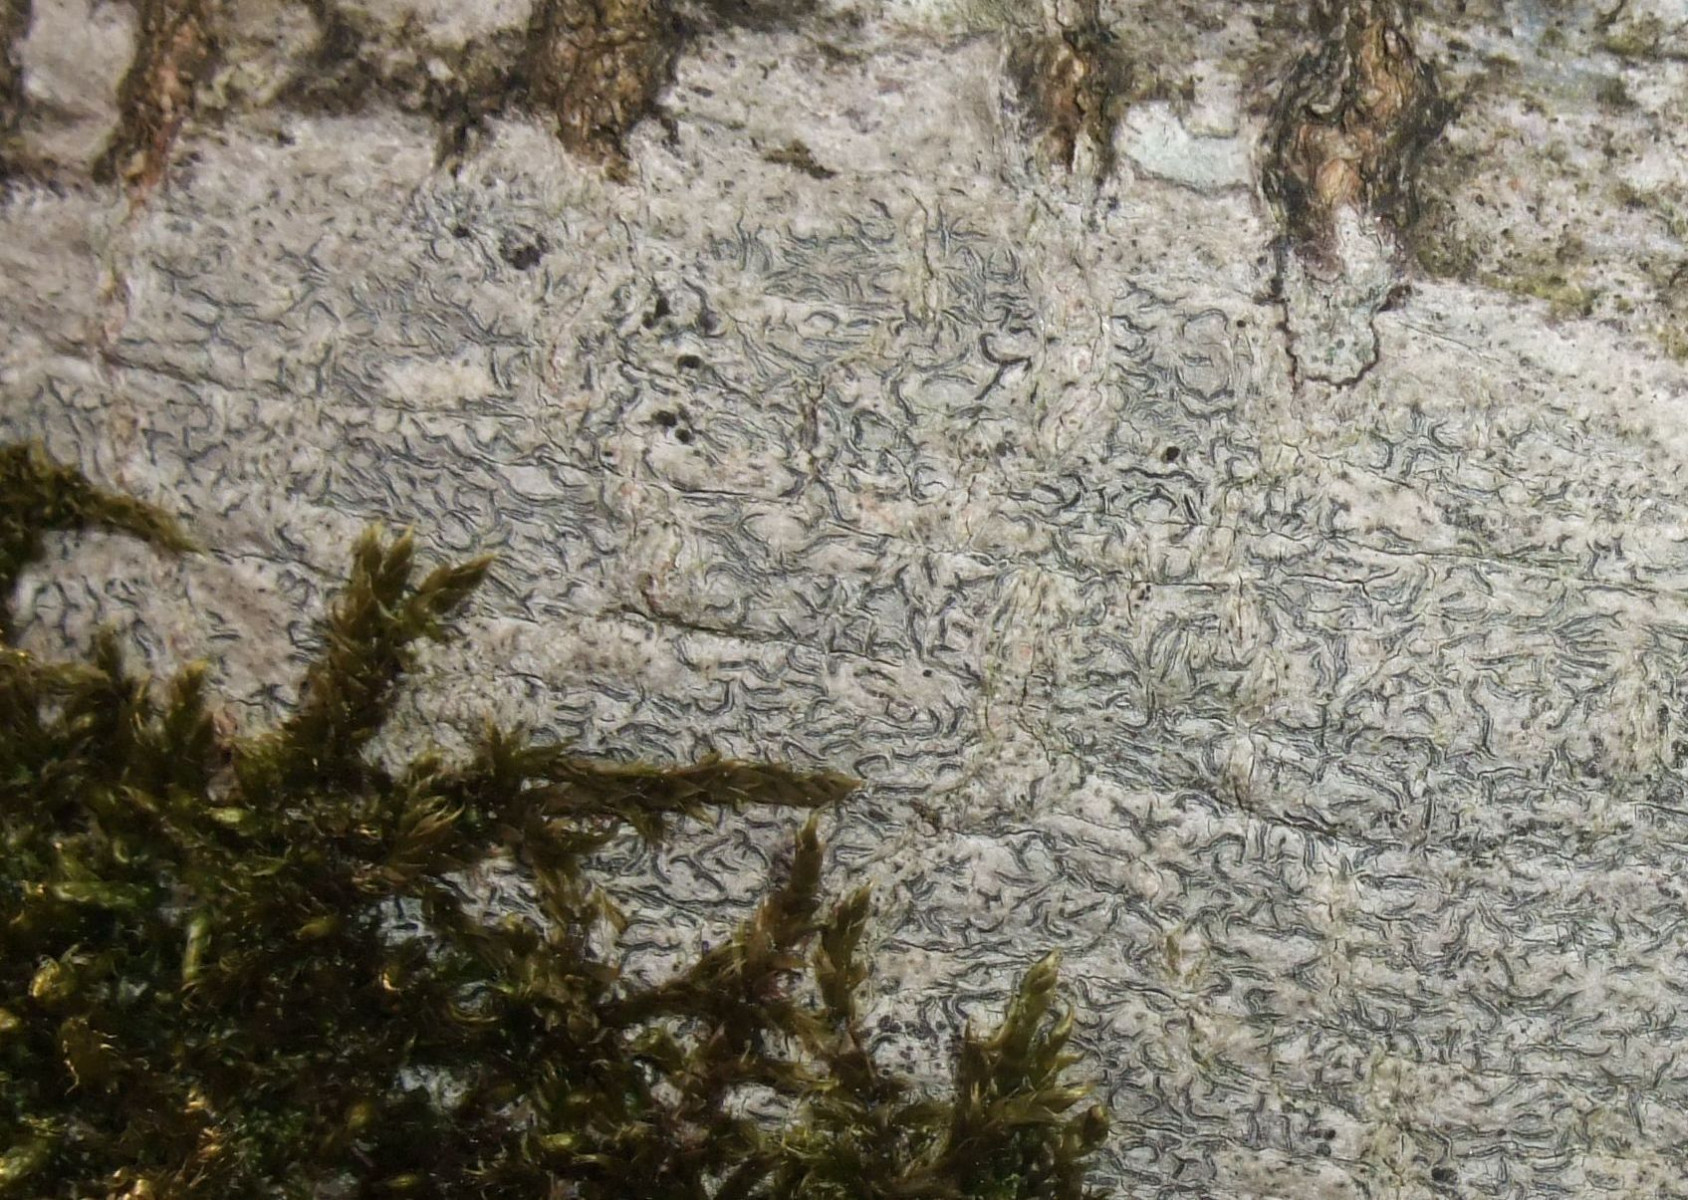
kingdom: Fungi
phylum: Ascomycota
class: Lecanoromycetes
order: Ostropales
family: Graphidaceae
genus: Graphis
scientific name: Graphis scripta
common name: almindelig skriftlav
